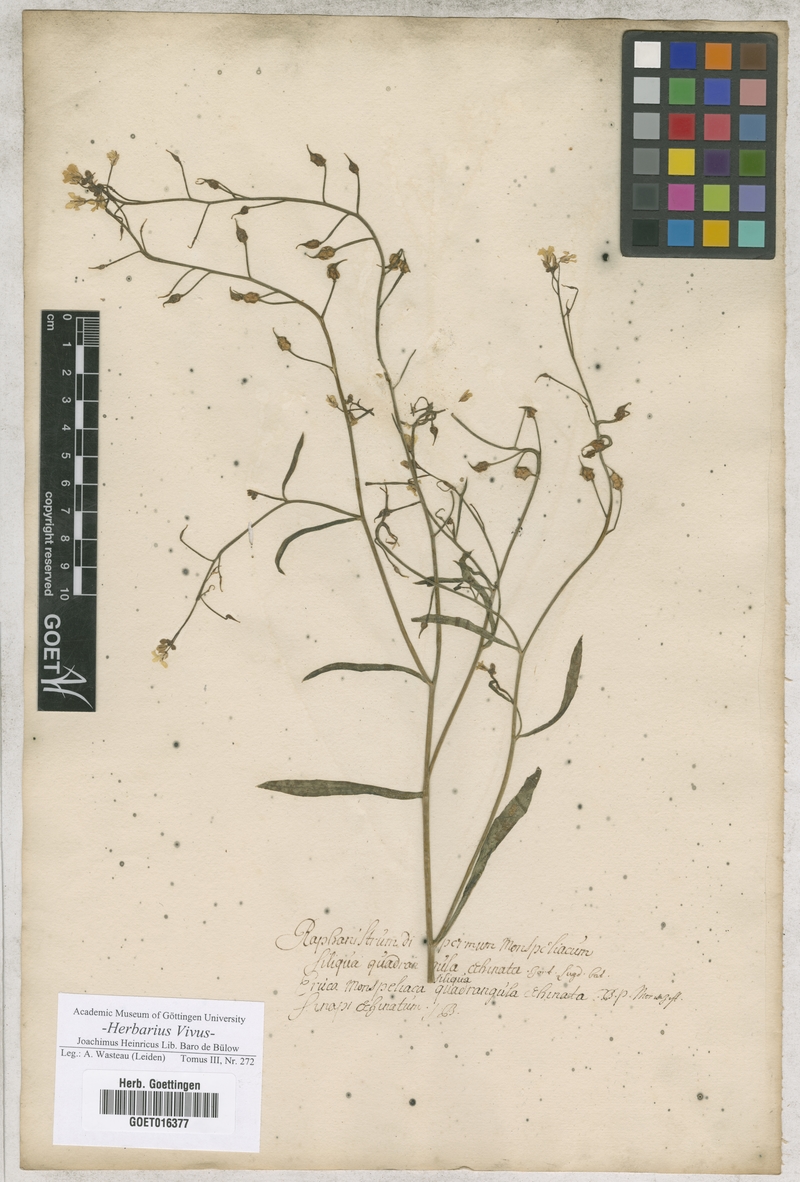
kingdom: Plantae
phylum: Tracheophyta
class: Magnoliopsida
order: Brassicales
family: Brassicaceae
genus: Bunias
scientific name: Bunias erucago
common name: Southern warty-cabbage
